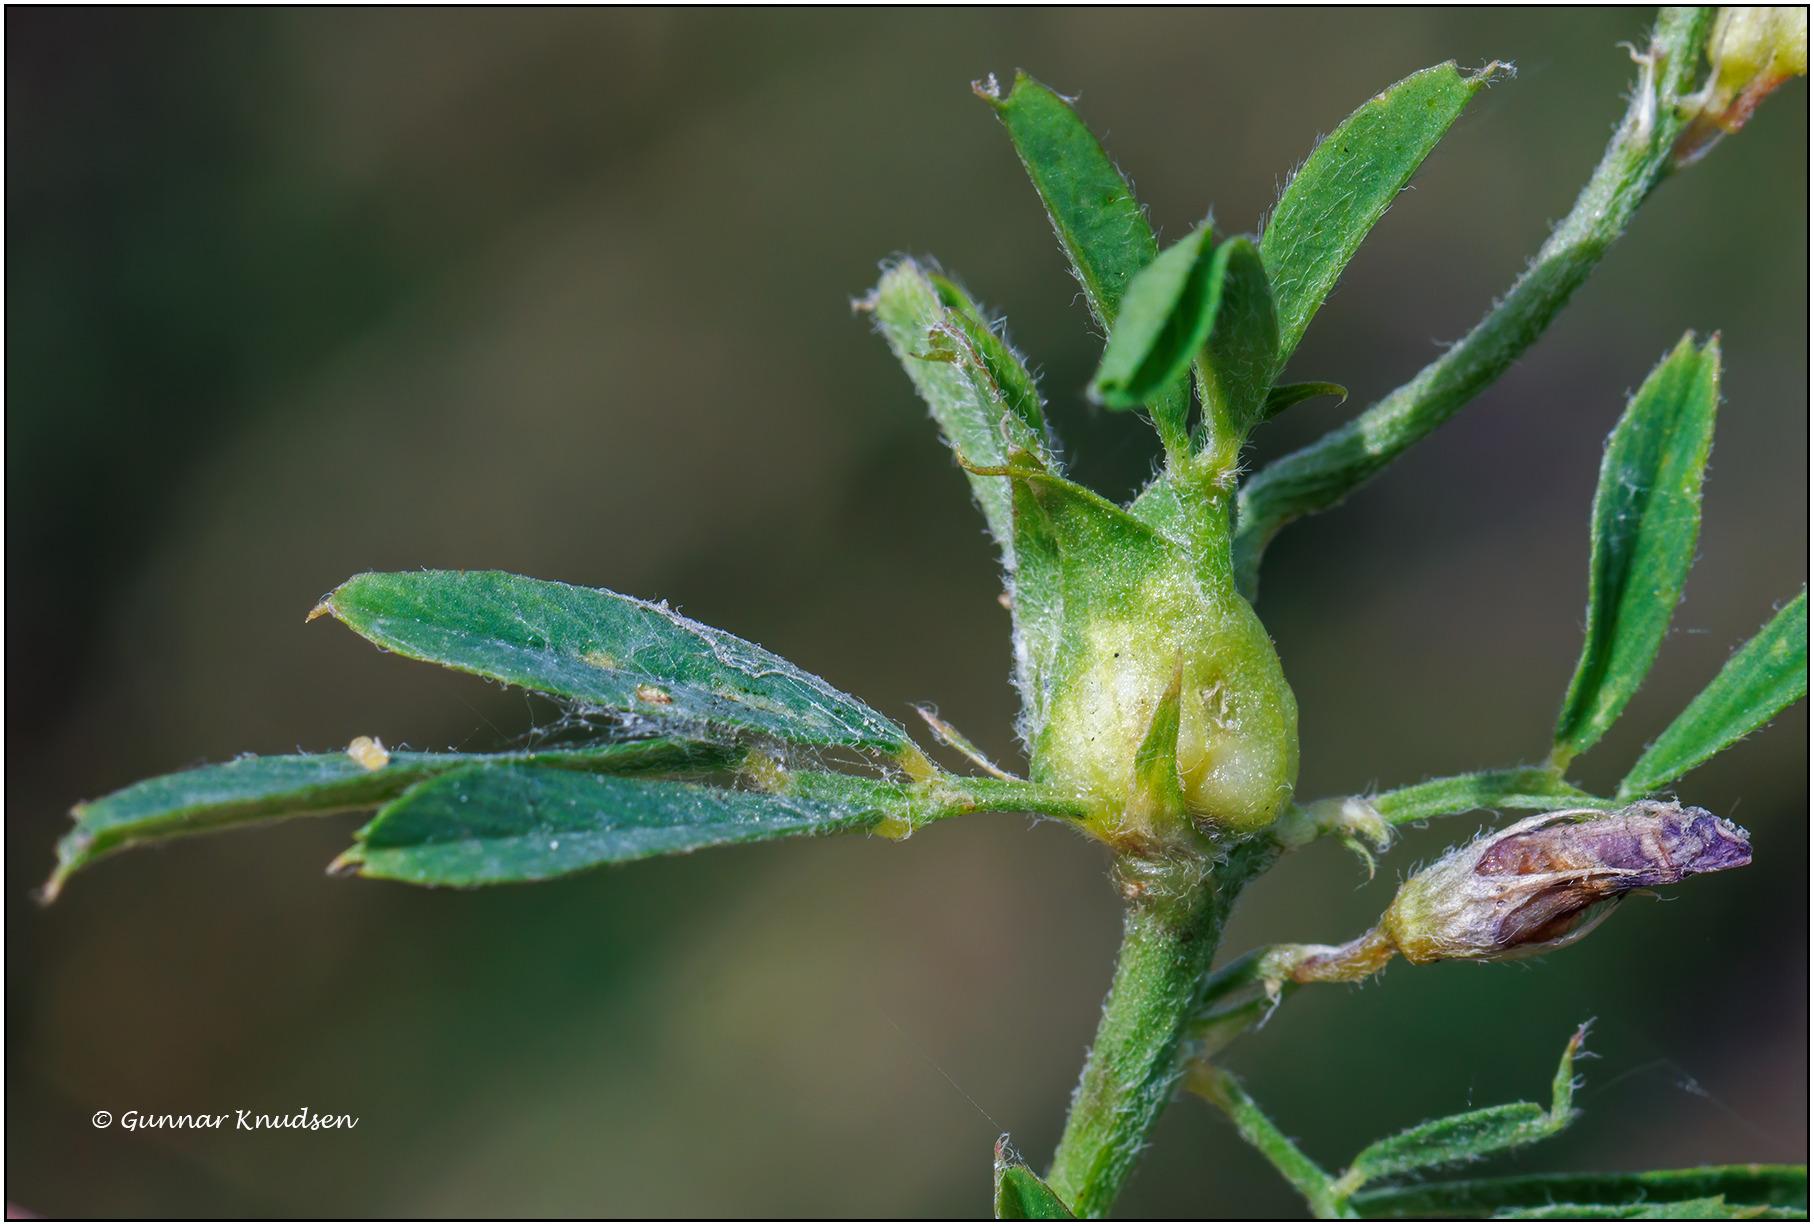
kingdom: Animalia
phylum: Arthropoda
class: Insecta
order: Diptera
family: Cecidomyiidae
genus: Dasineura
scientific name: Dasineura medicaginis
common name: Lucerneknopgalmyg
